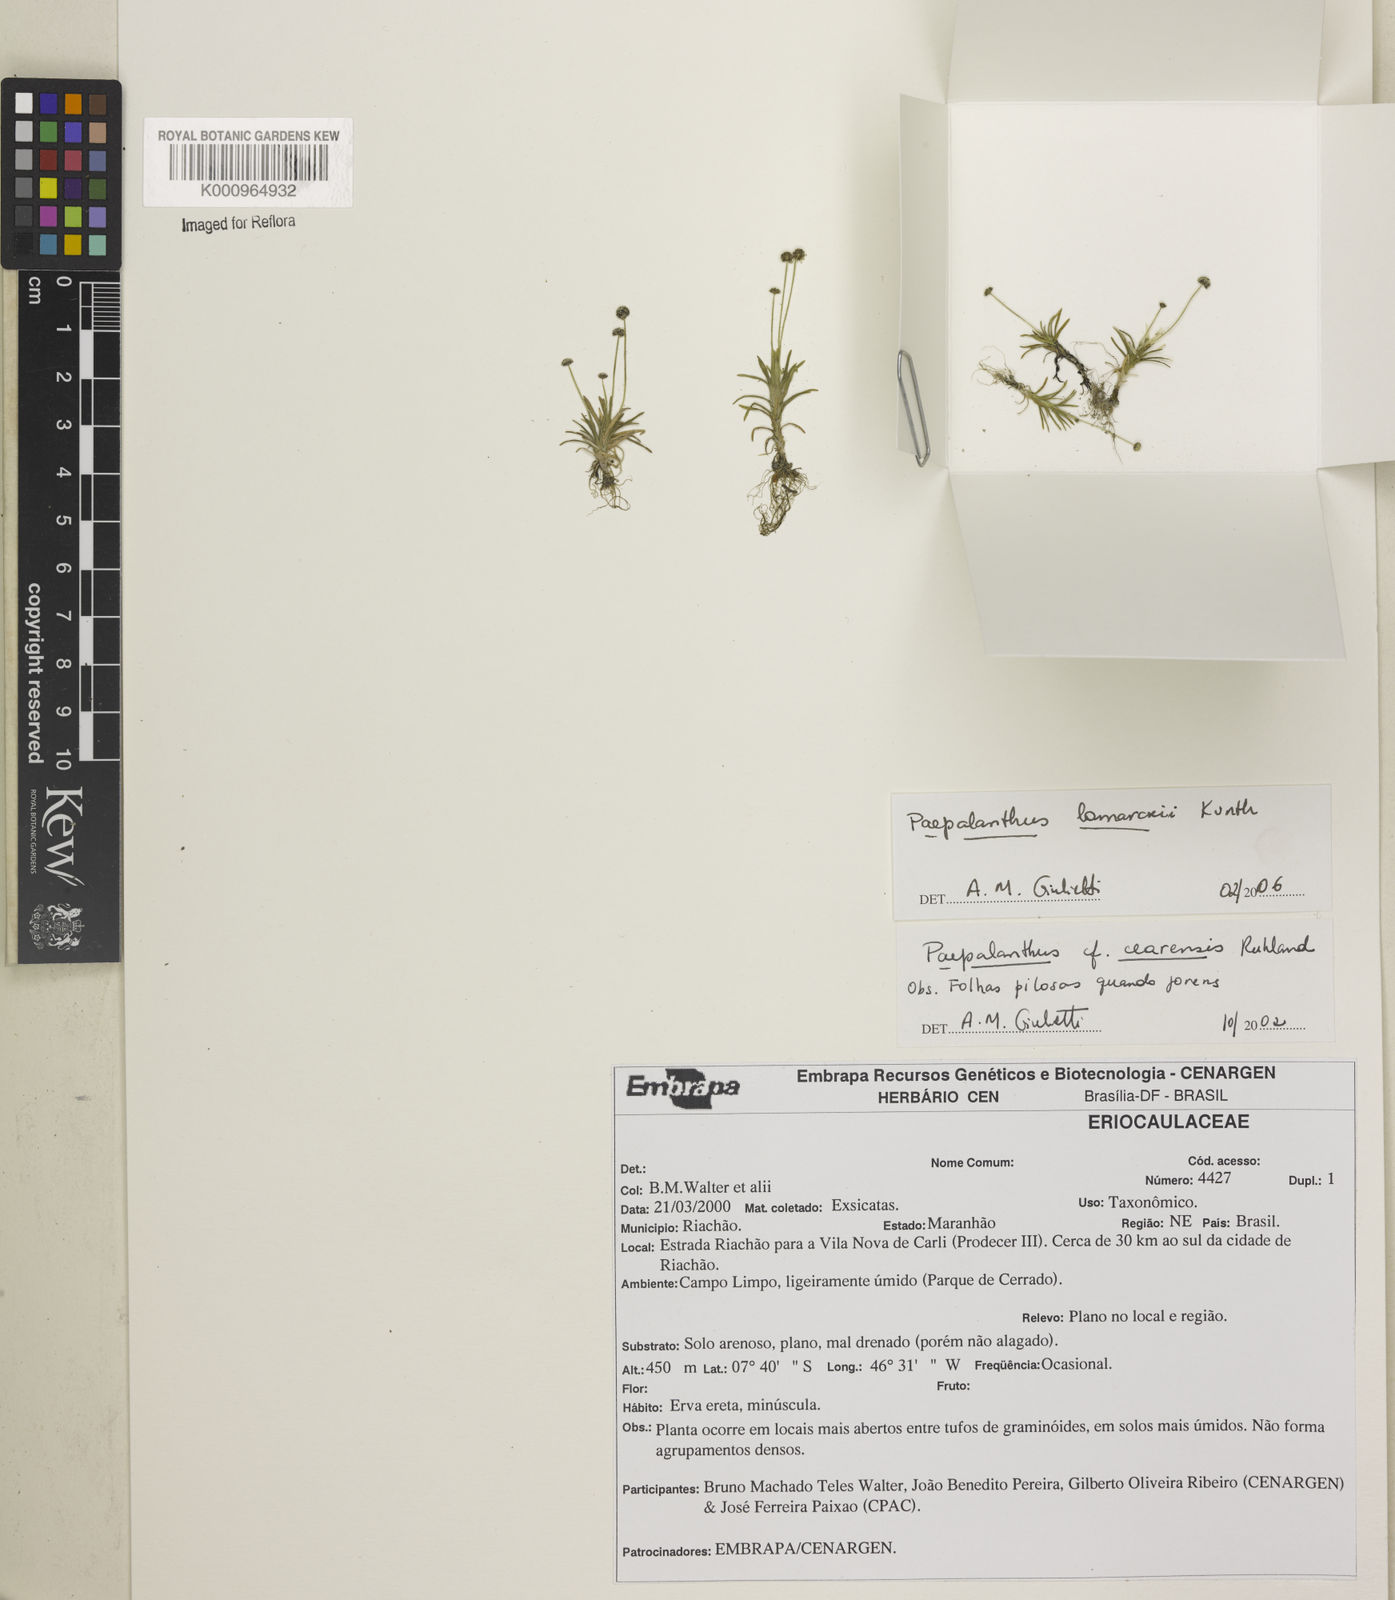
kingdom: Plantae
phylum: Tracheophyta
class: Liliopsida
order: Poales
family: Eriocaulaceae
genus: Paepalanthus
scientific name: Paepalanthus lamarckii
